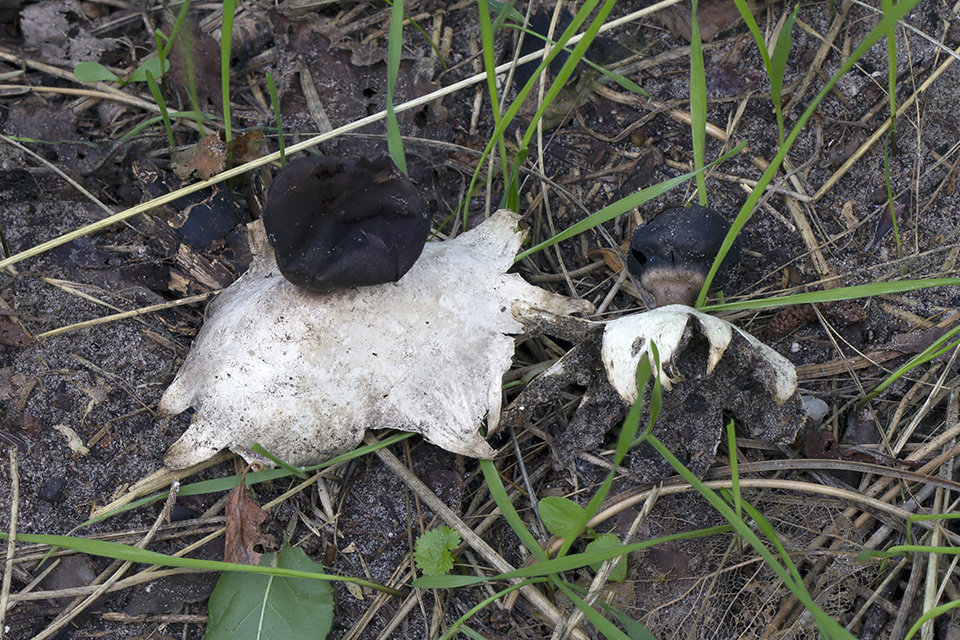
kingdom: Fungi
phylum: Basidiomycota
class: Agaricomycetes
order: Geastrales
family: Geastraceae
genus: Geastrum
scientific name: Geastrum coronatum
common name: mørk stjernebold
